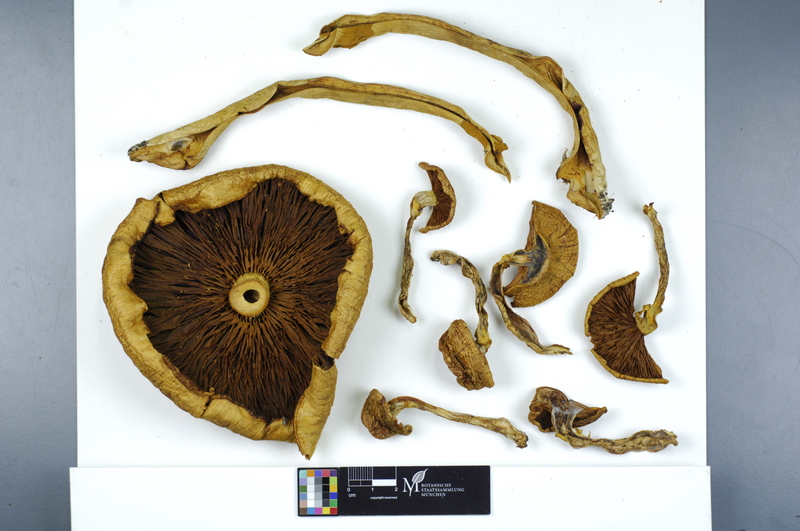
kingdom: Fungi
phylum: Basidiomycota
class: Agaricomycetes
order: Agaricales
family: Tricholomataceae
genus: Phaeolepiota
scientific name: Phaeolepiota aurea
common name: Golden bootleg
